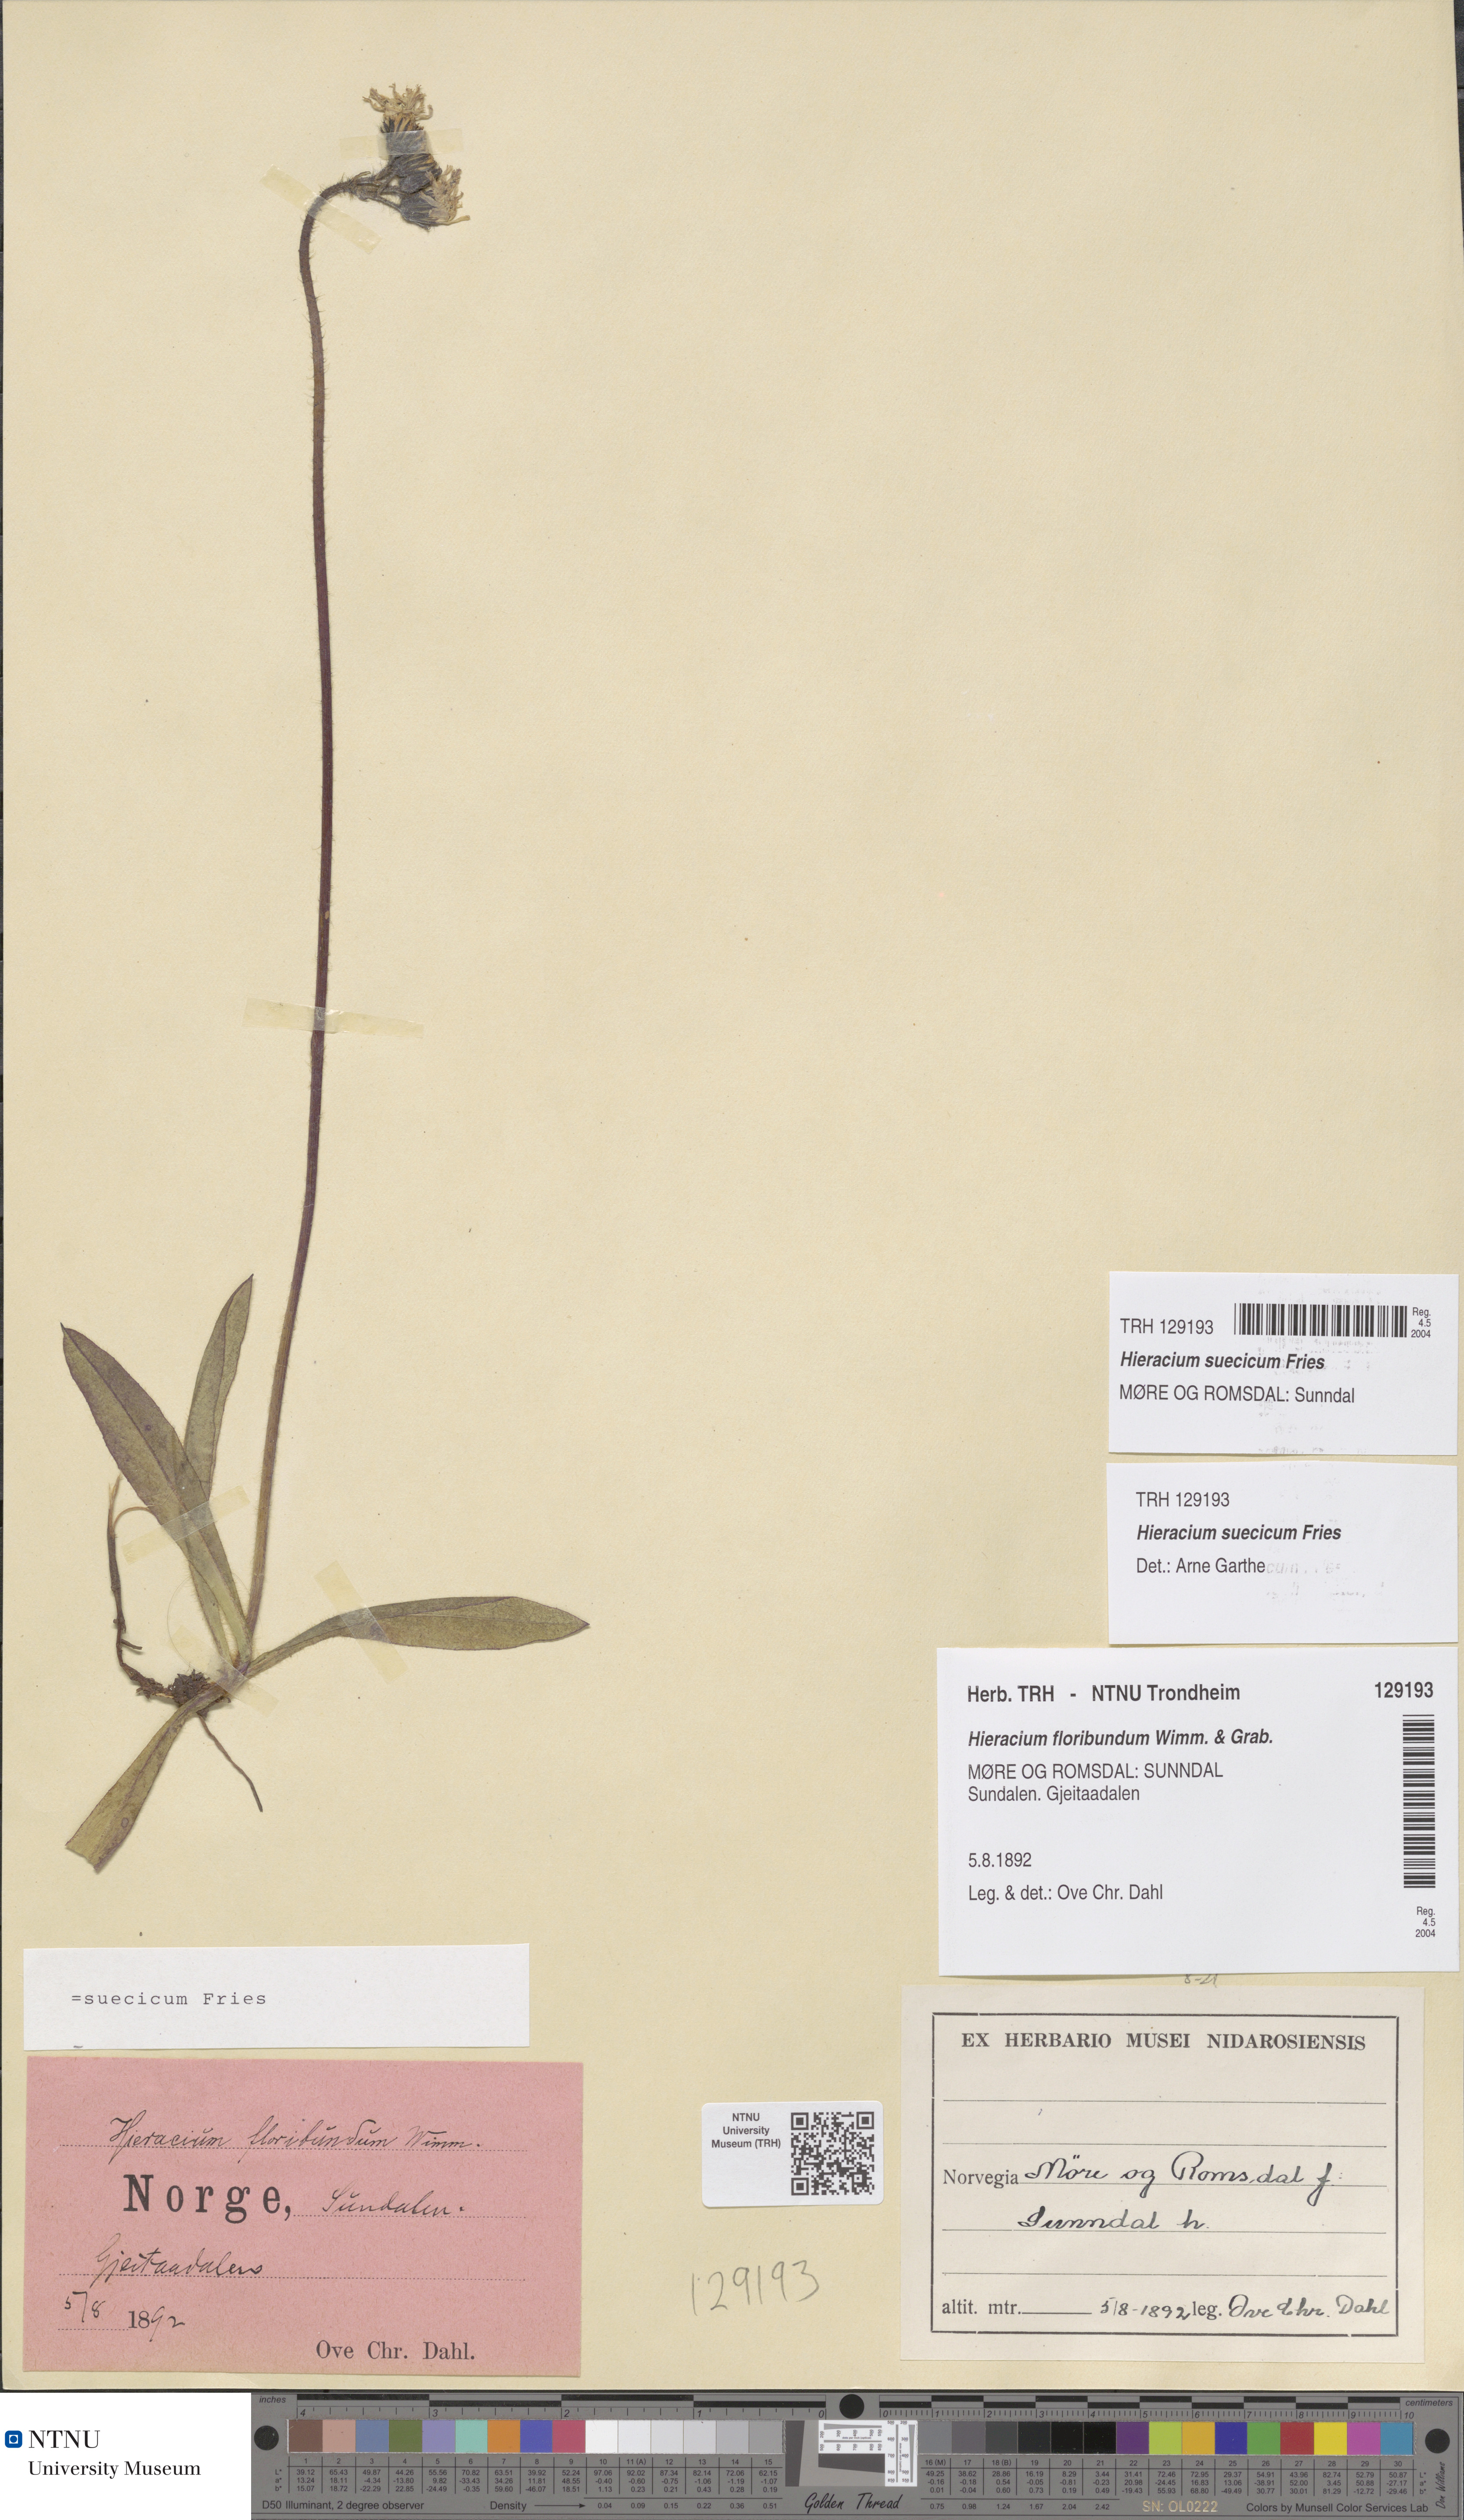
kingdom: Plantae
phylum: Tracheophyta
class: Magnoliopsida
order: Asterales
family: Asteraceae
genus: Pilosella
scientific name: Pilosella dubia
